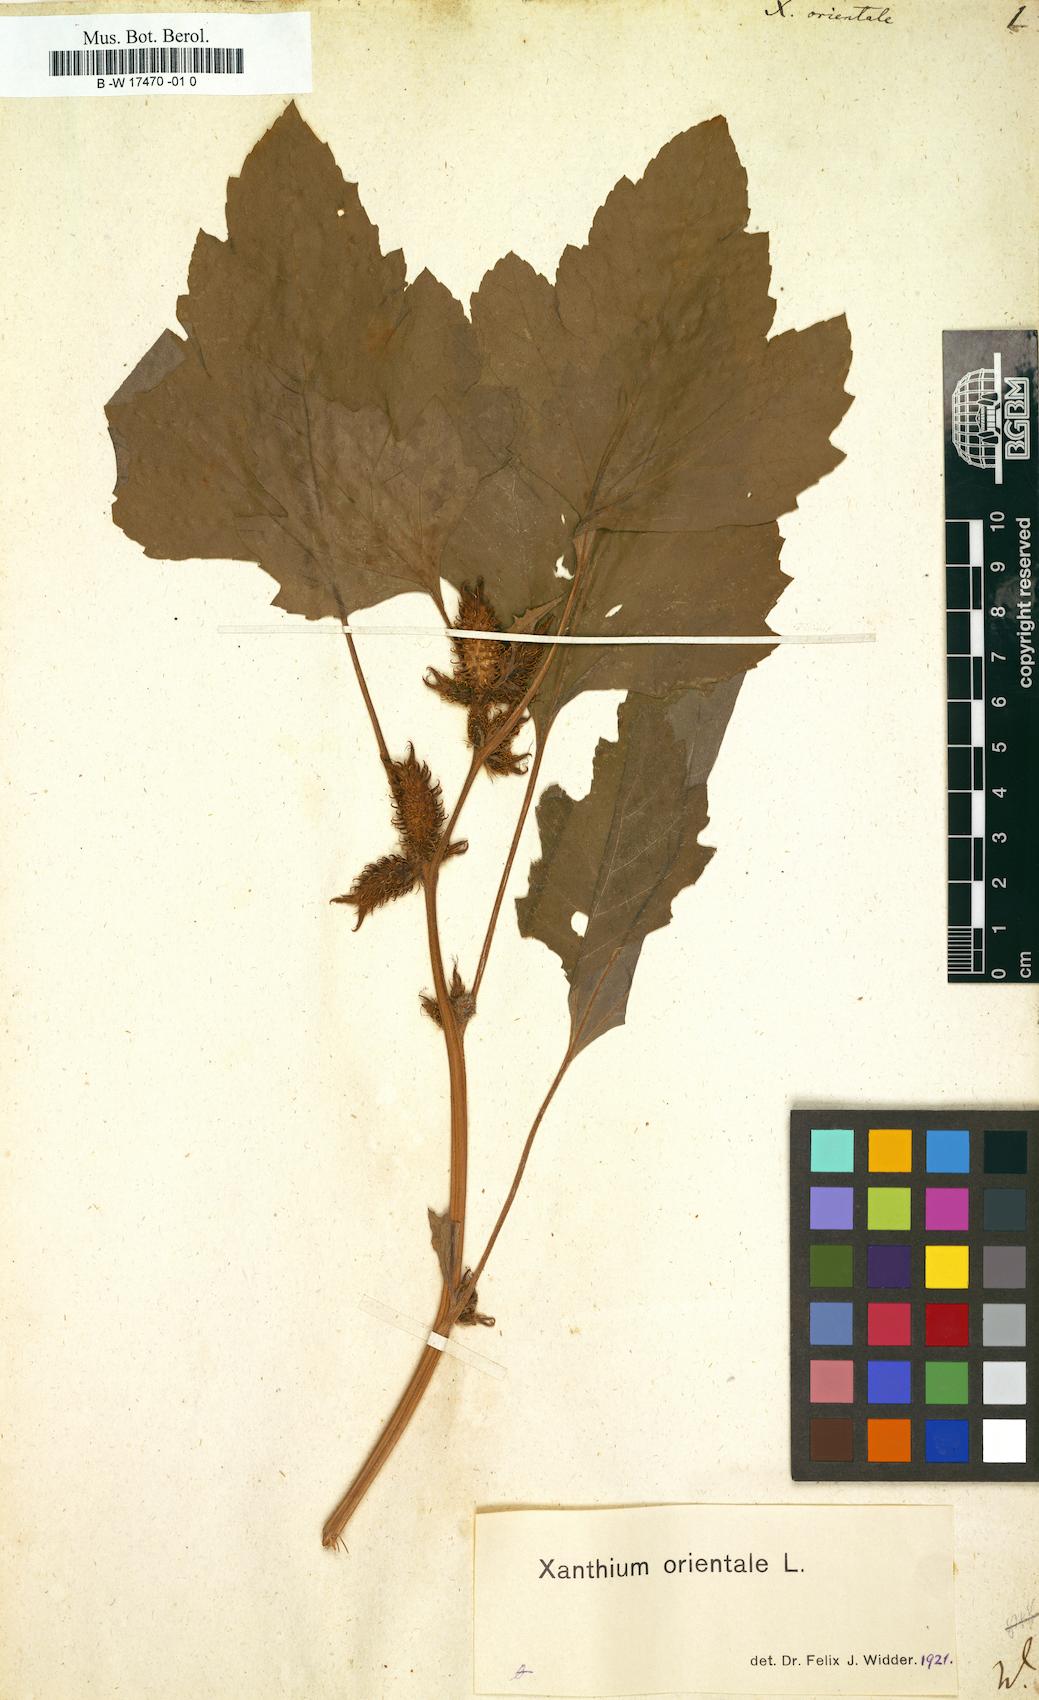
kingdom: Plantae
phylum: Tracheophyta
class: Magnoliopsida
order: Asterales
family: Asteraceae
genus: Xanthium
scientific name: Xanthium orientale
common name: Californian burr
